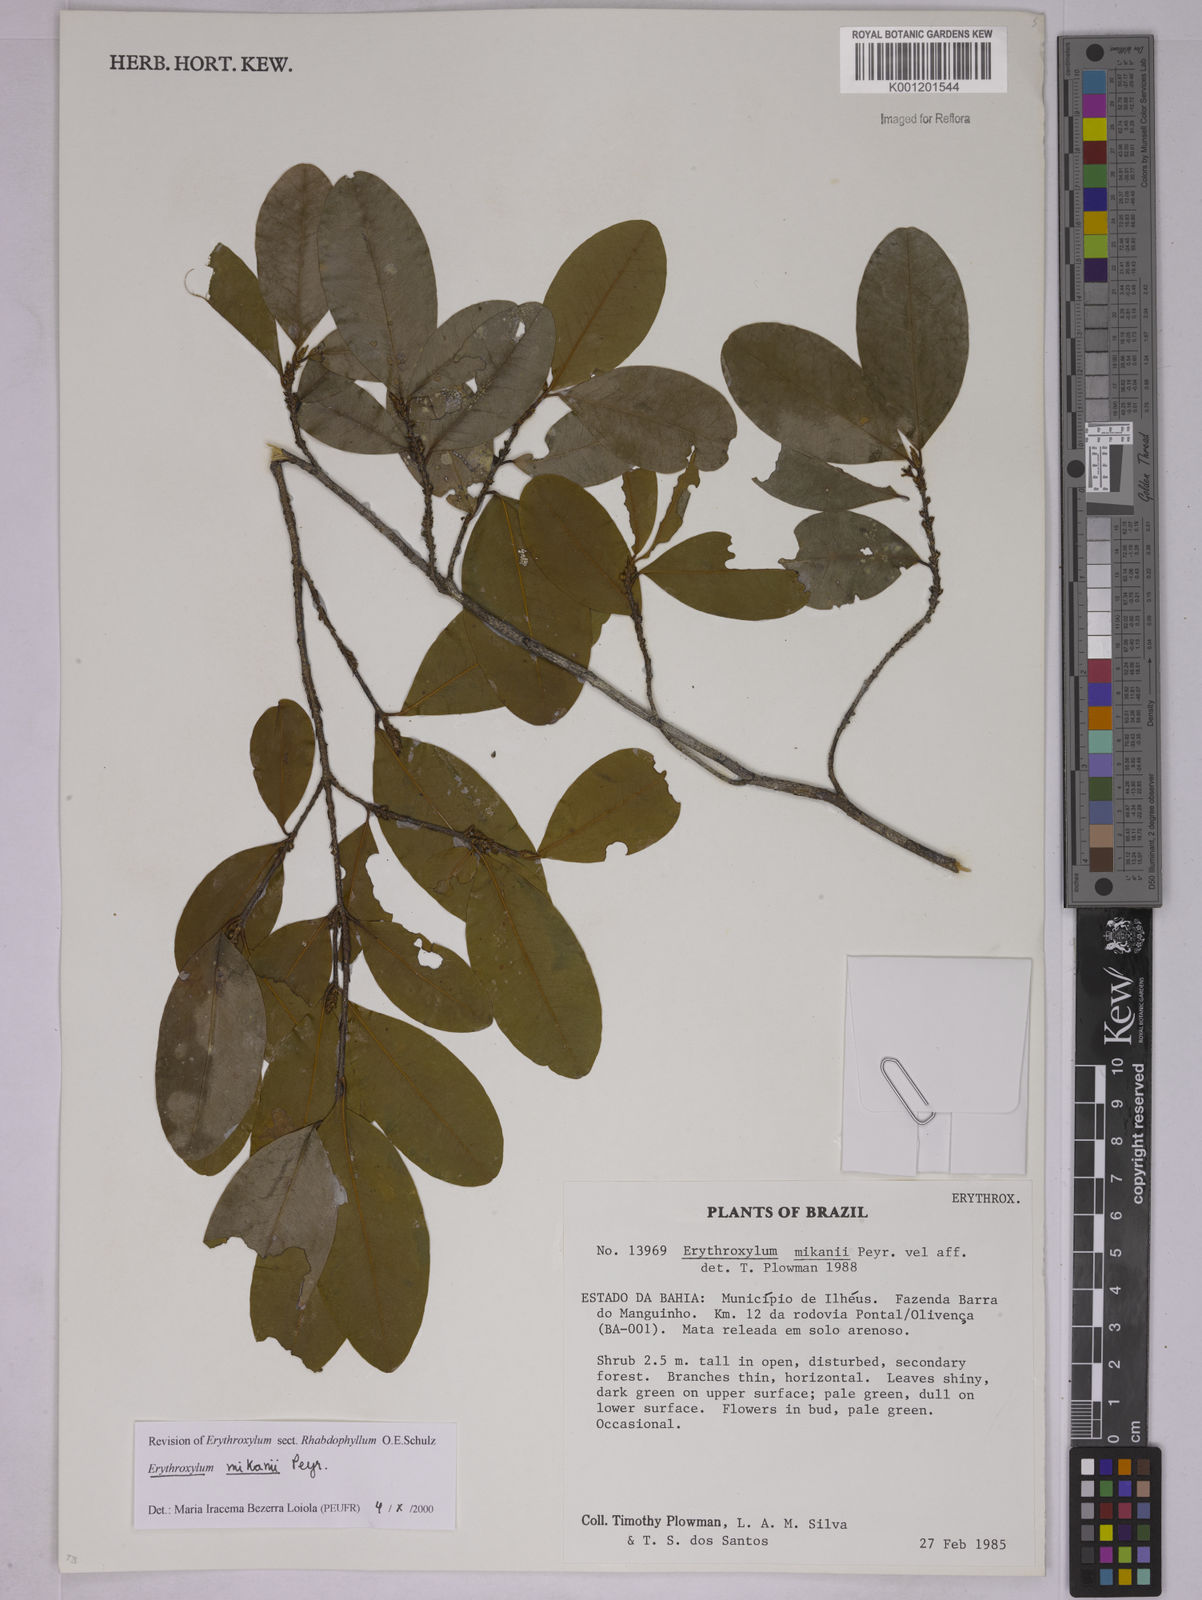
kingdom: Plantae
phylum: Tracheophyta
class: Magnoliopsida
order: Malpighiales
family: Erythroxylaceae
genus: Erythroxylum
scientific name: Erythroxylum mikanii
